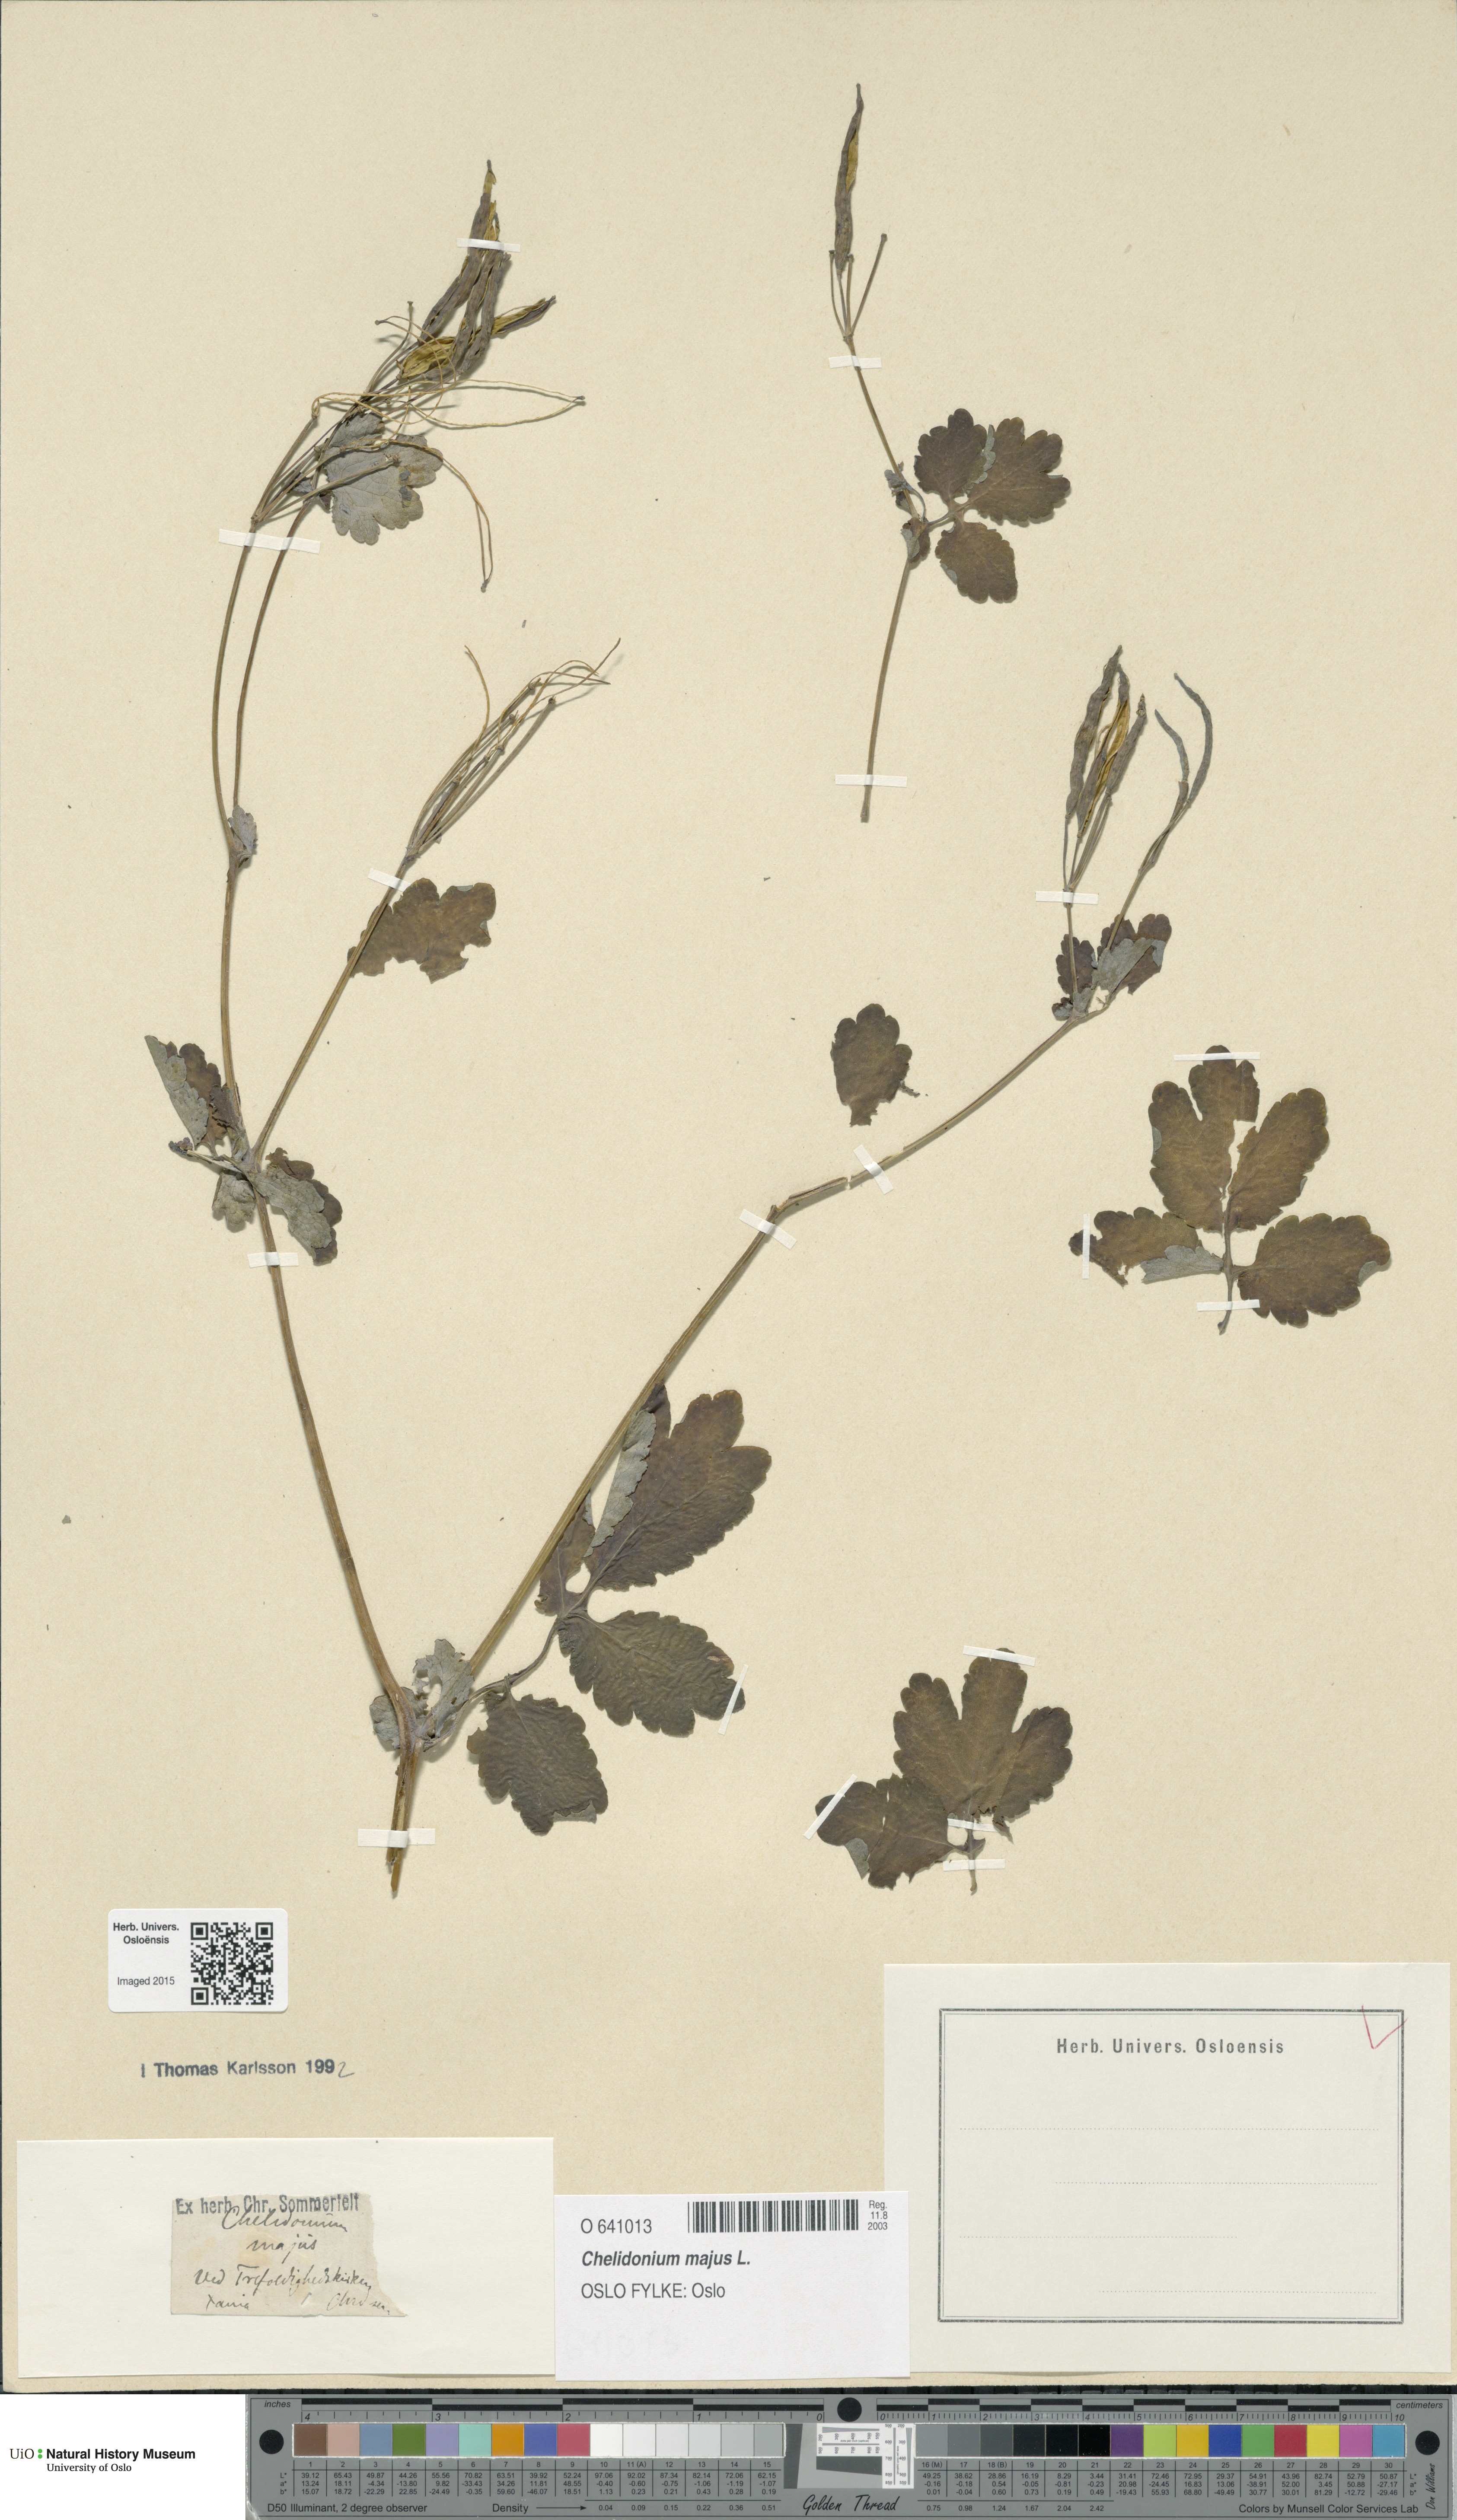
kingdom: Plantae
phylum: Tracheophyta
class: Magnoliopsida
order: Ranunculales
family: Papaveraceae
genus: Chelidonium
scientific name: Chelidonium majus
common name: Greater celandine
